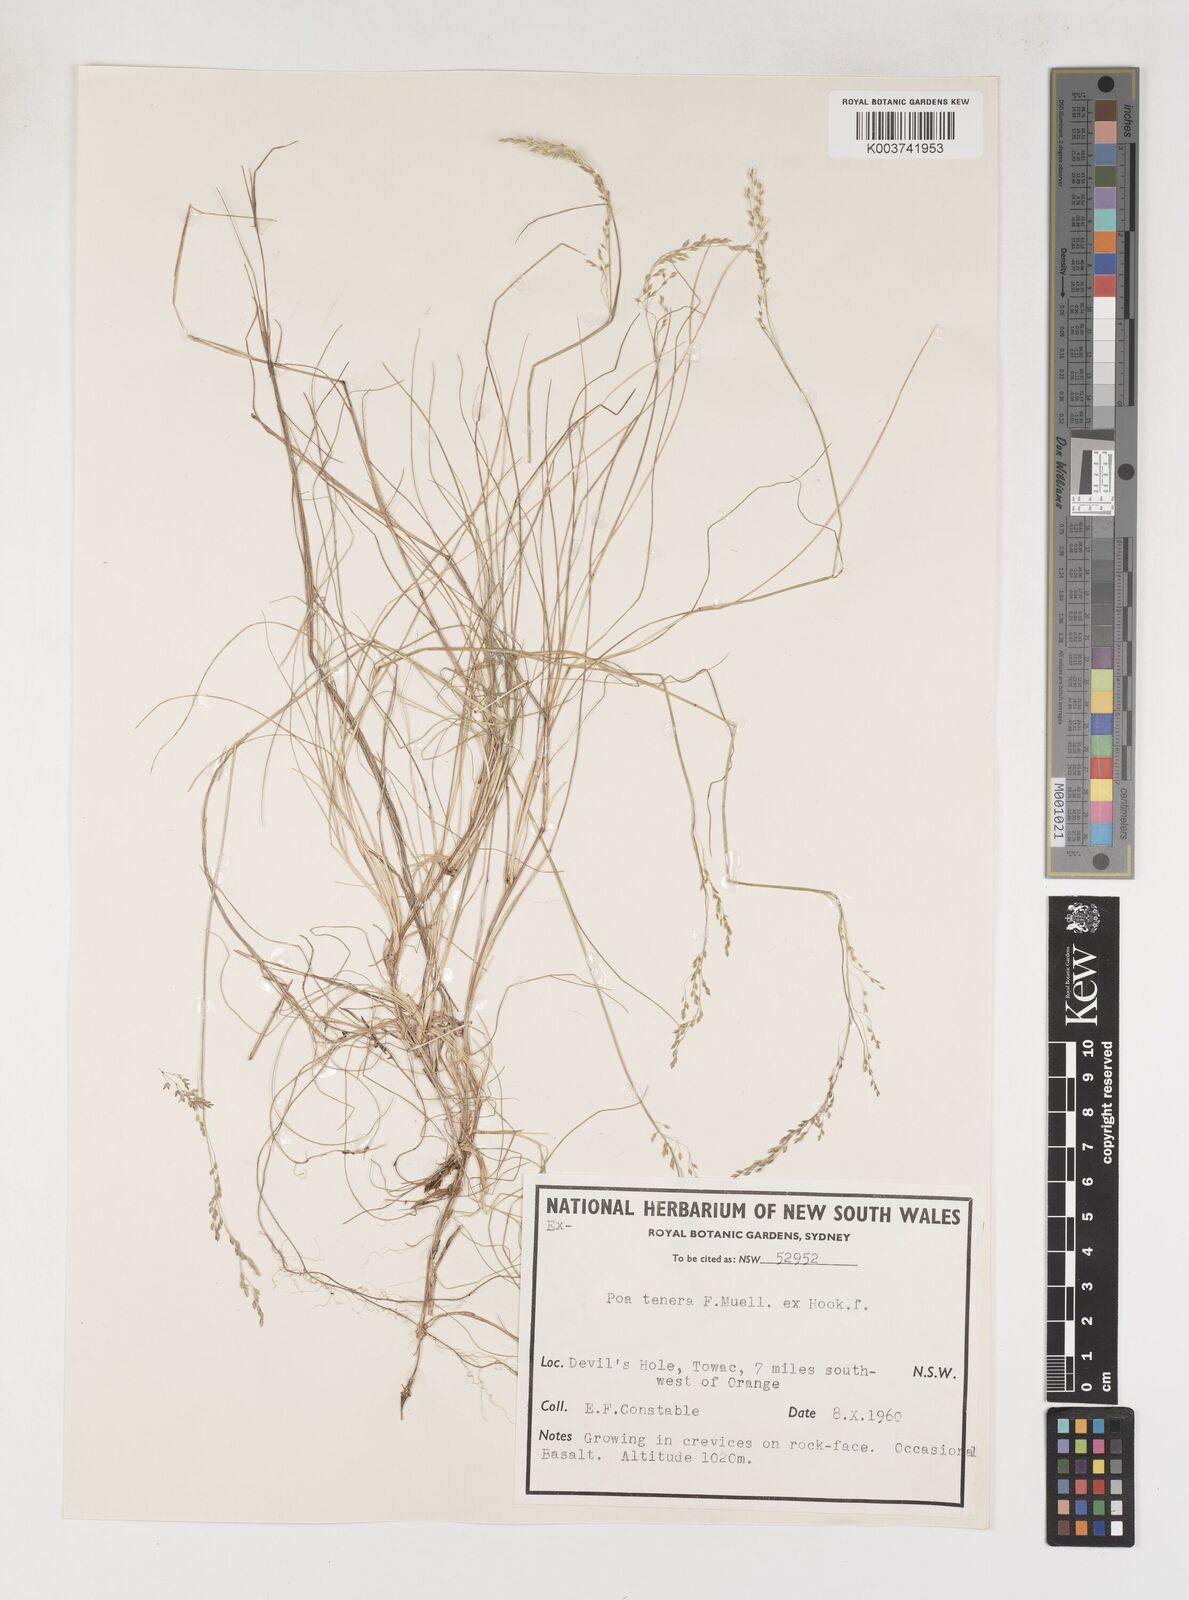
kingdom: Plantae
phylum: Tracheophyta
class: Liliopsida
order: Poales
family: Poaceae
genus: Poa
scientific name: Poa tenera
